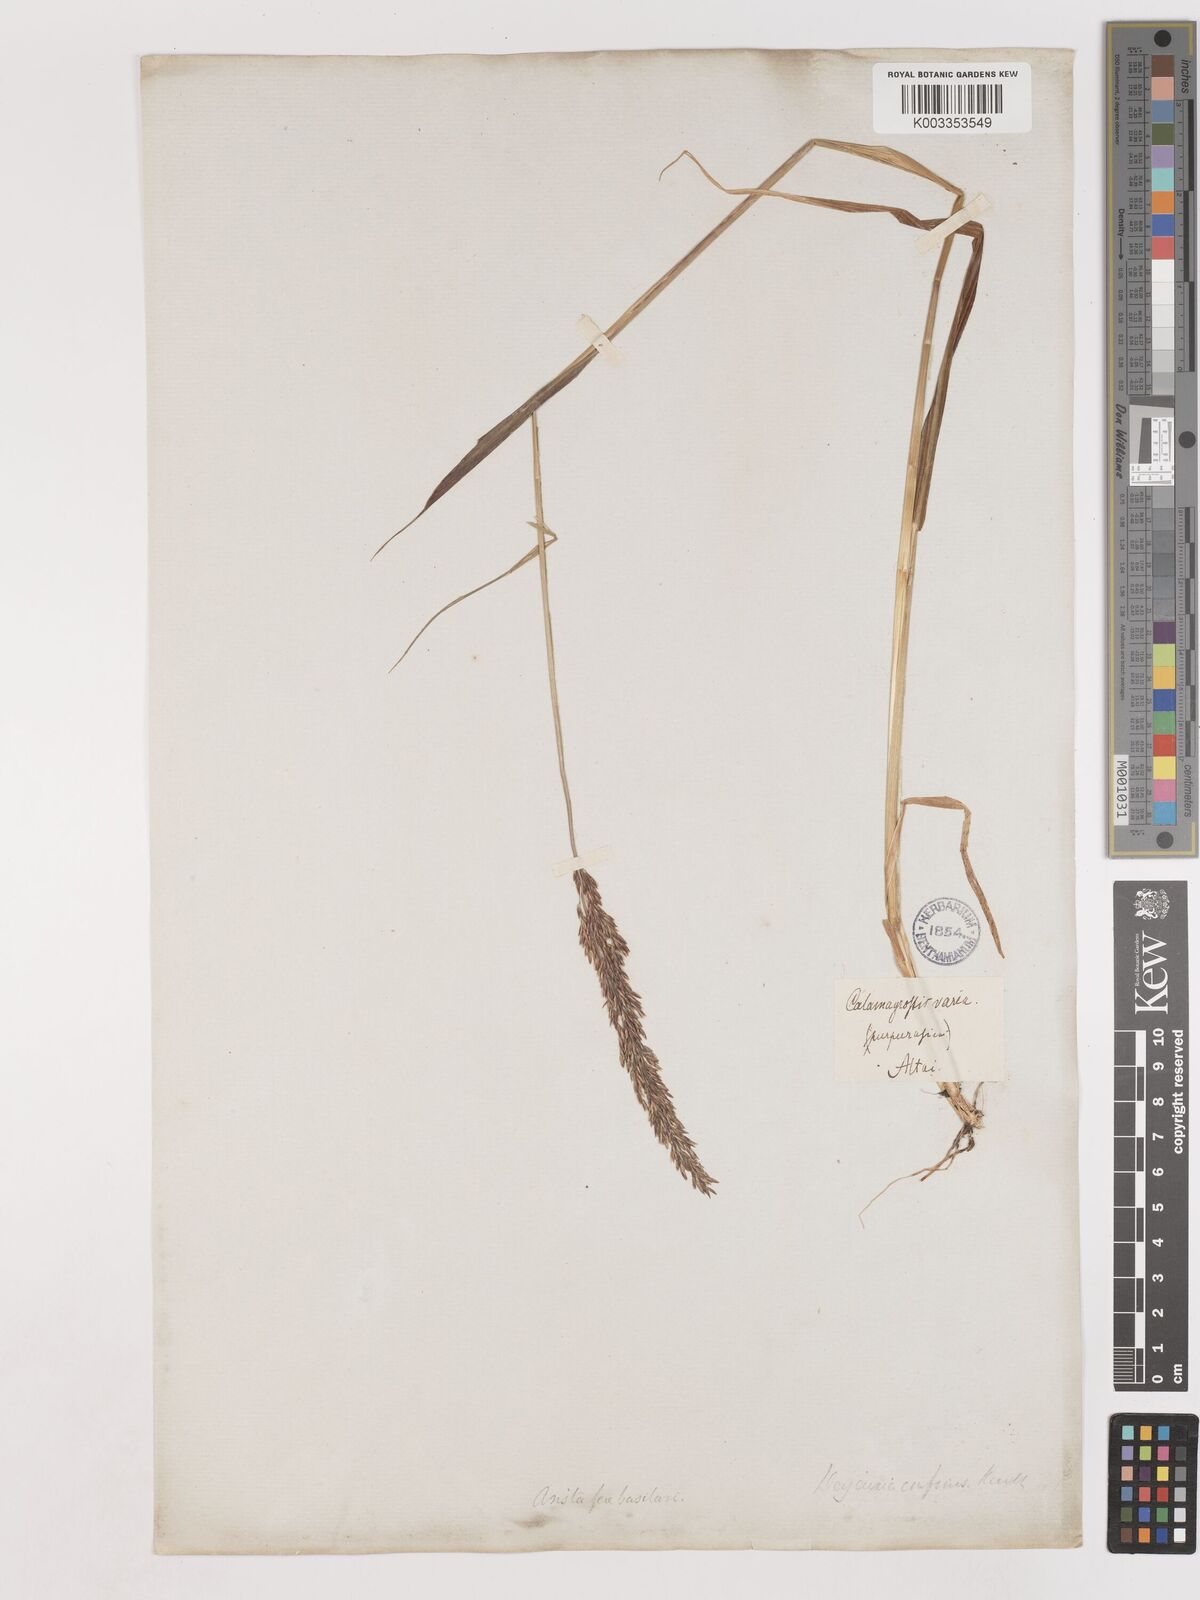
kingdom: Plantae
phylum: Tracheophyta
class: Liliopsida
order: Poales
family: Poaceae
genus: Calamagrostis
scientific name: Calamagrostis purpurascens
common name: Purple reedgrass
